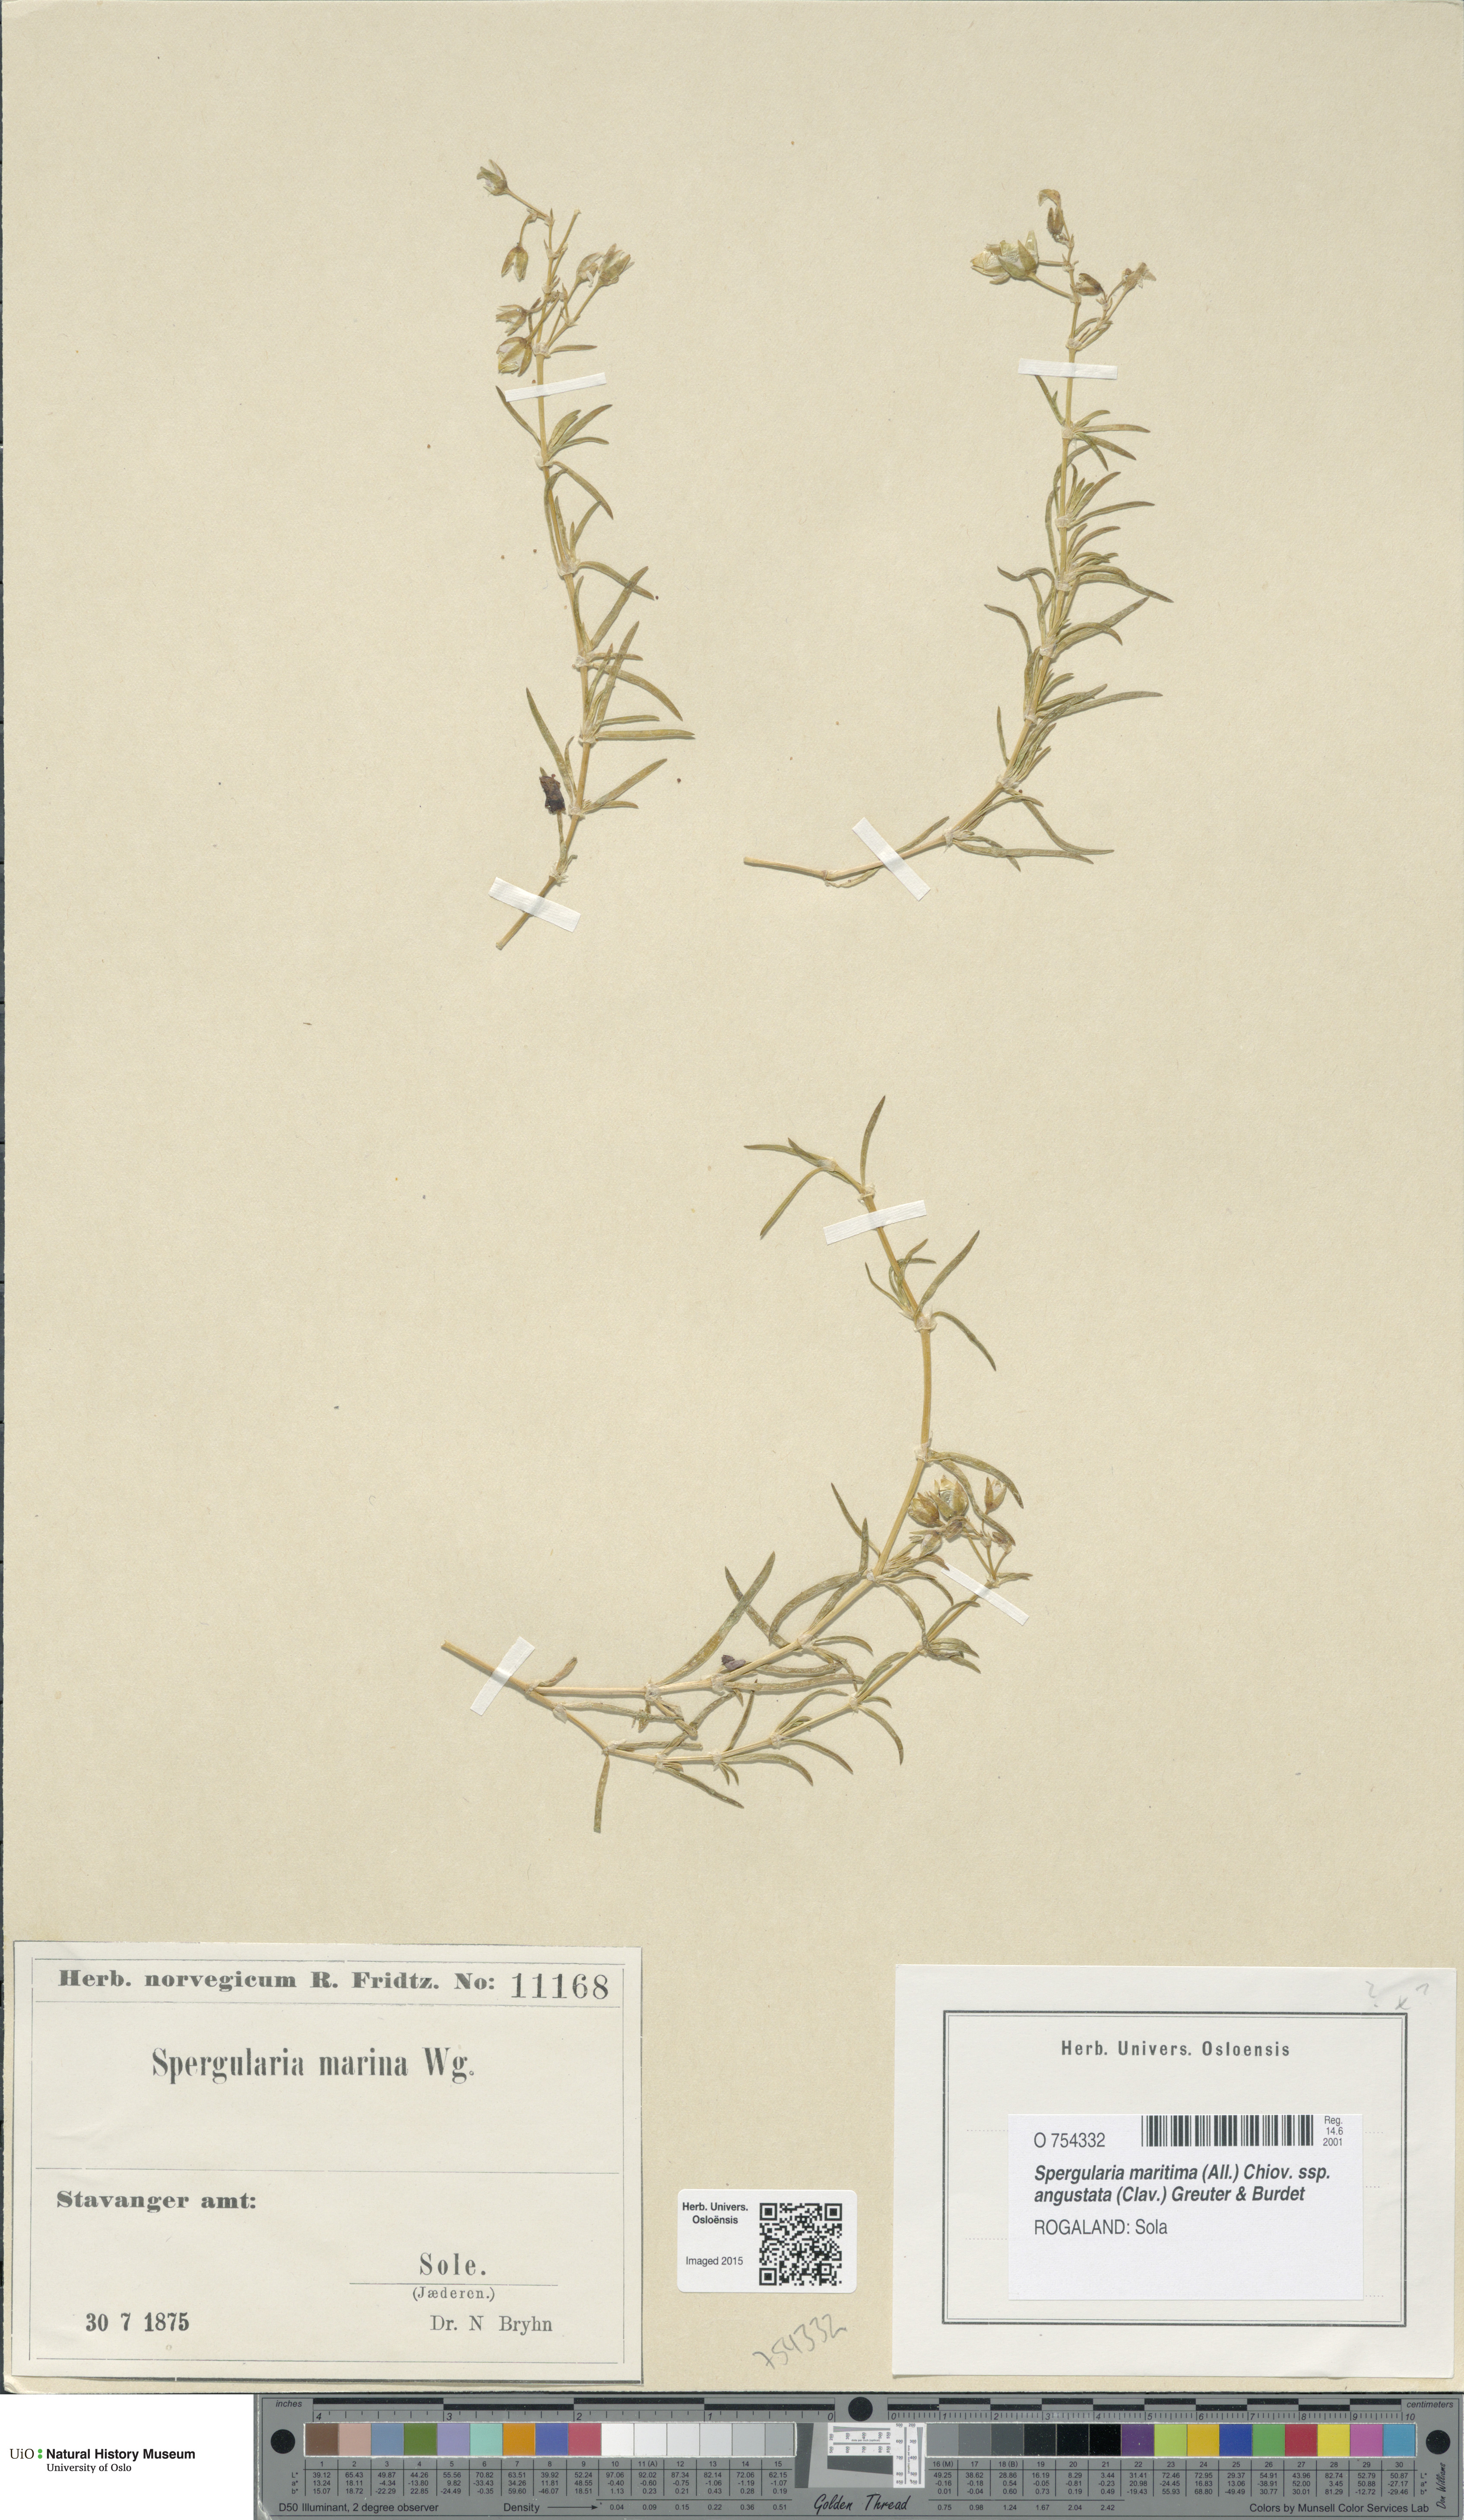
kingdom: Plantae
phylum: Tracheophyta
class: Magnoliopsida
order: Caryophyllales
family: Caryophyllaceae
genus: Spergularia
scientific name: Spergularia media
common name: Greater sea-spurrey
